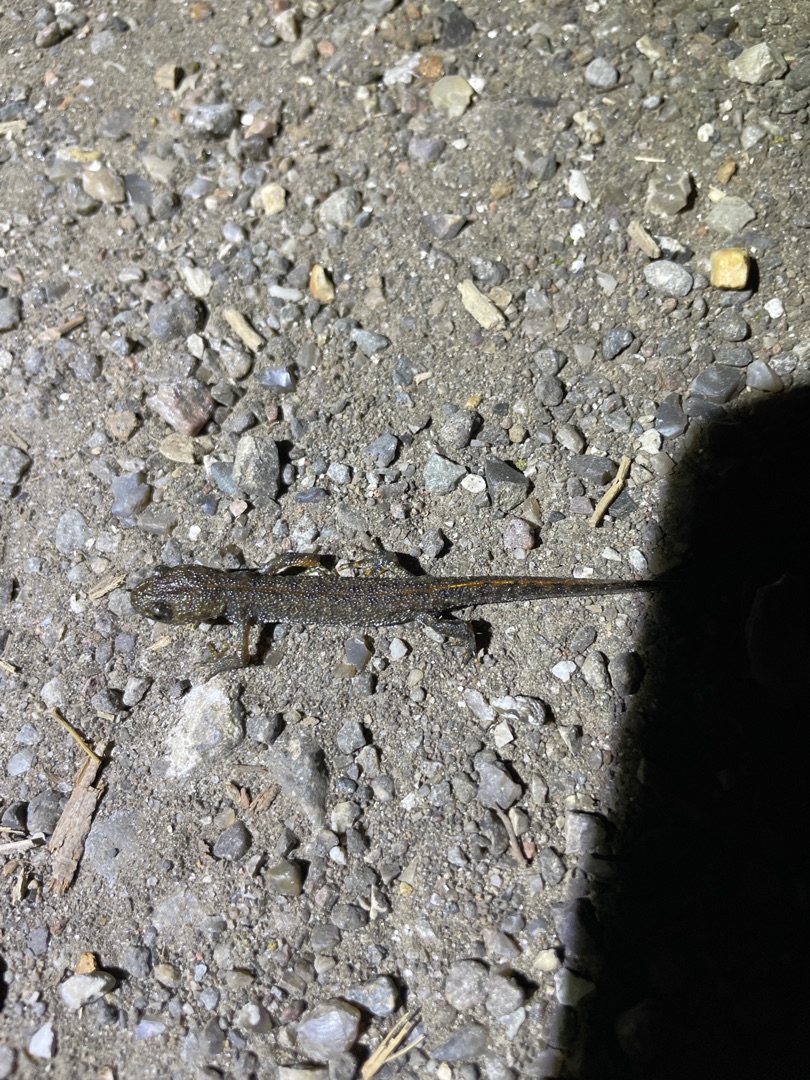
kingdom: Animalia
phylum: Chordata
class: Amphibia
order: Caudata
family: Salamandridae
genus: Triturus
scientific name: Triturus cristatus
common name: Stor vandsalamander
